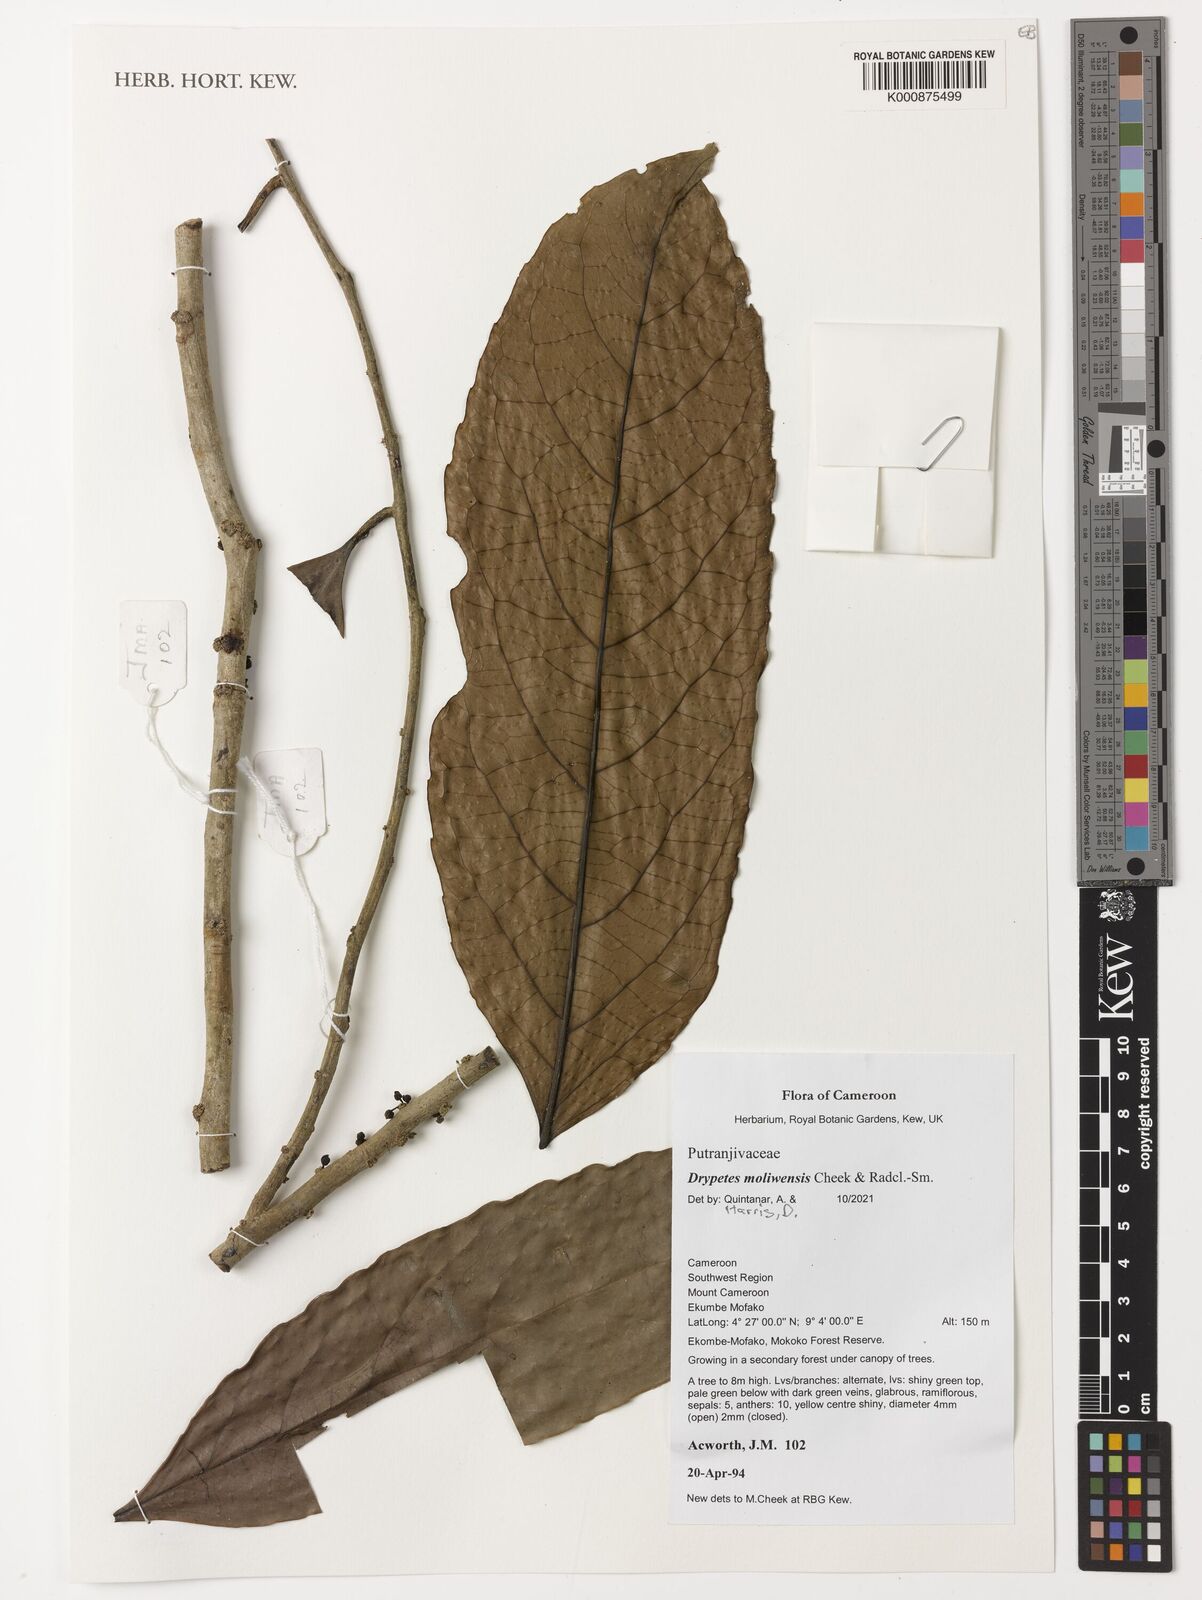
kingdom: Plantae
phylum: Tracheophyta
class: Magnoliopsida
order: Malpighiales
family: Putranjivaceae
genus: Drypetes
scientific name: Drypetes moliwensis
